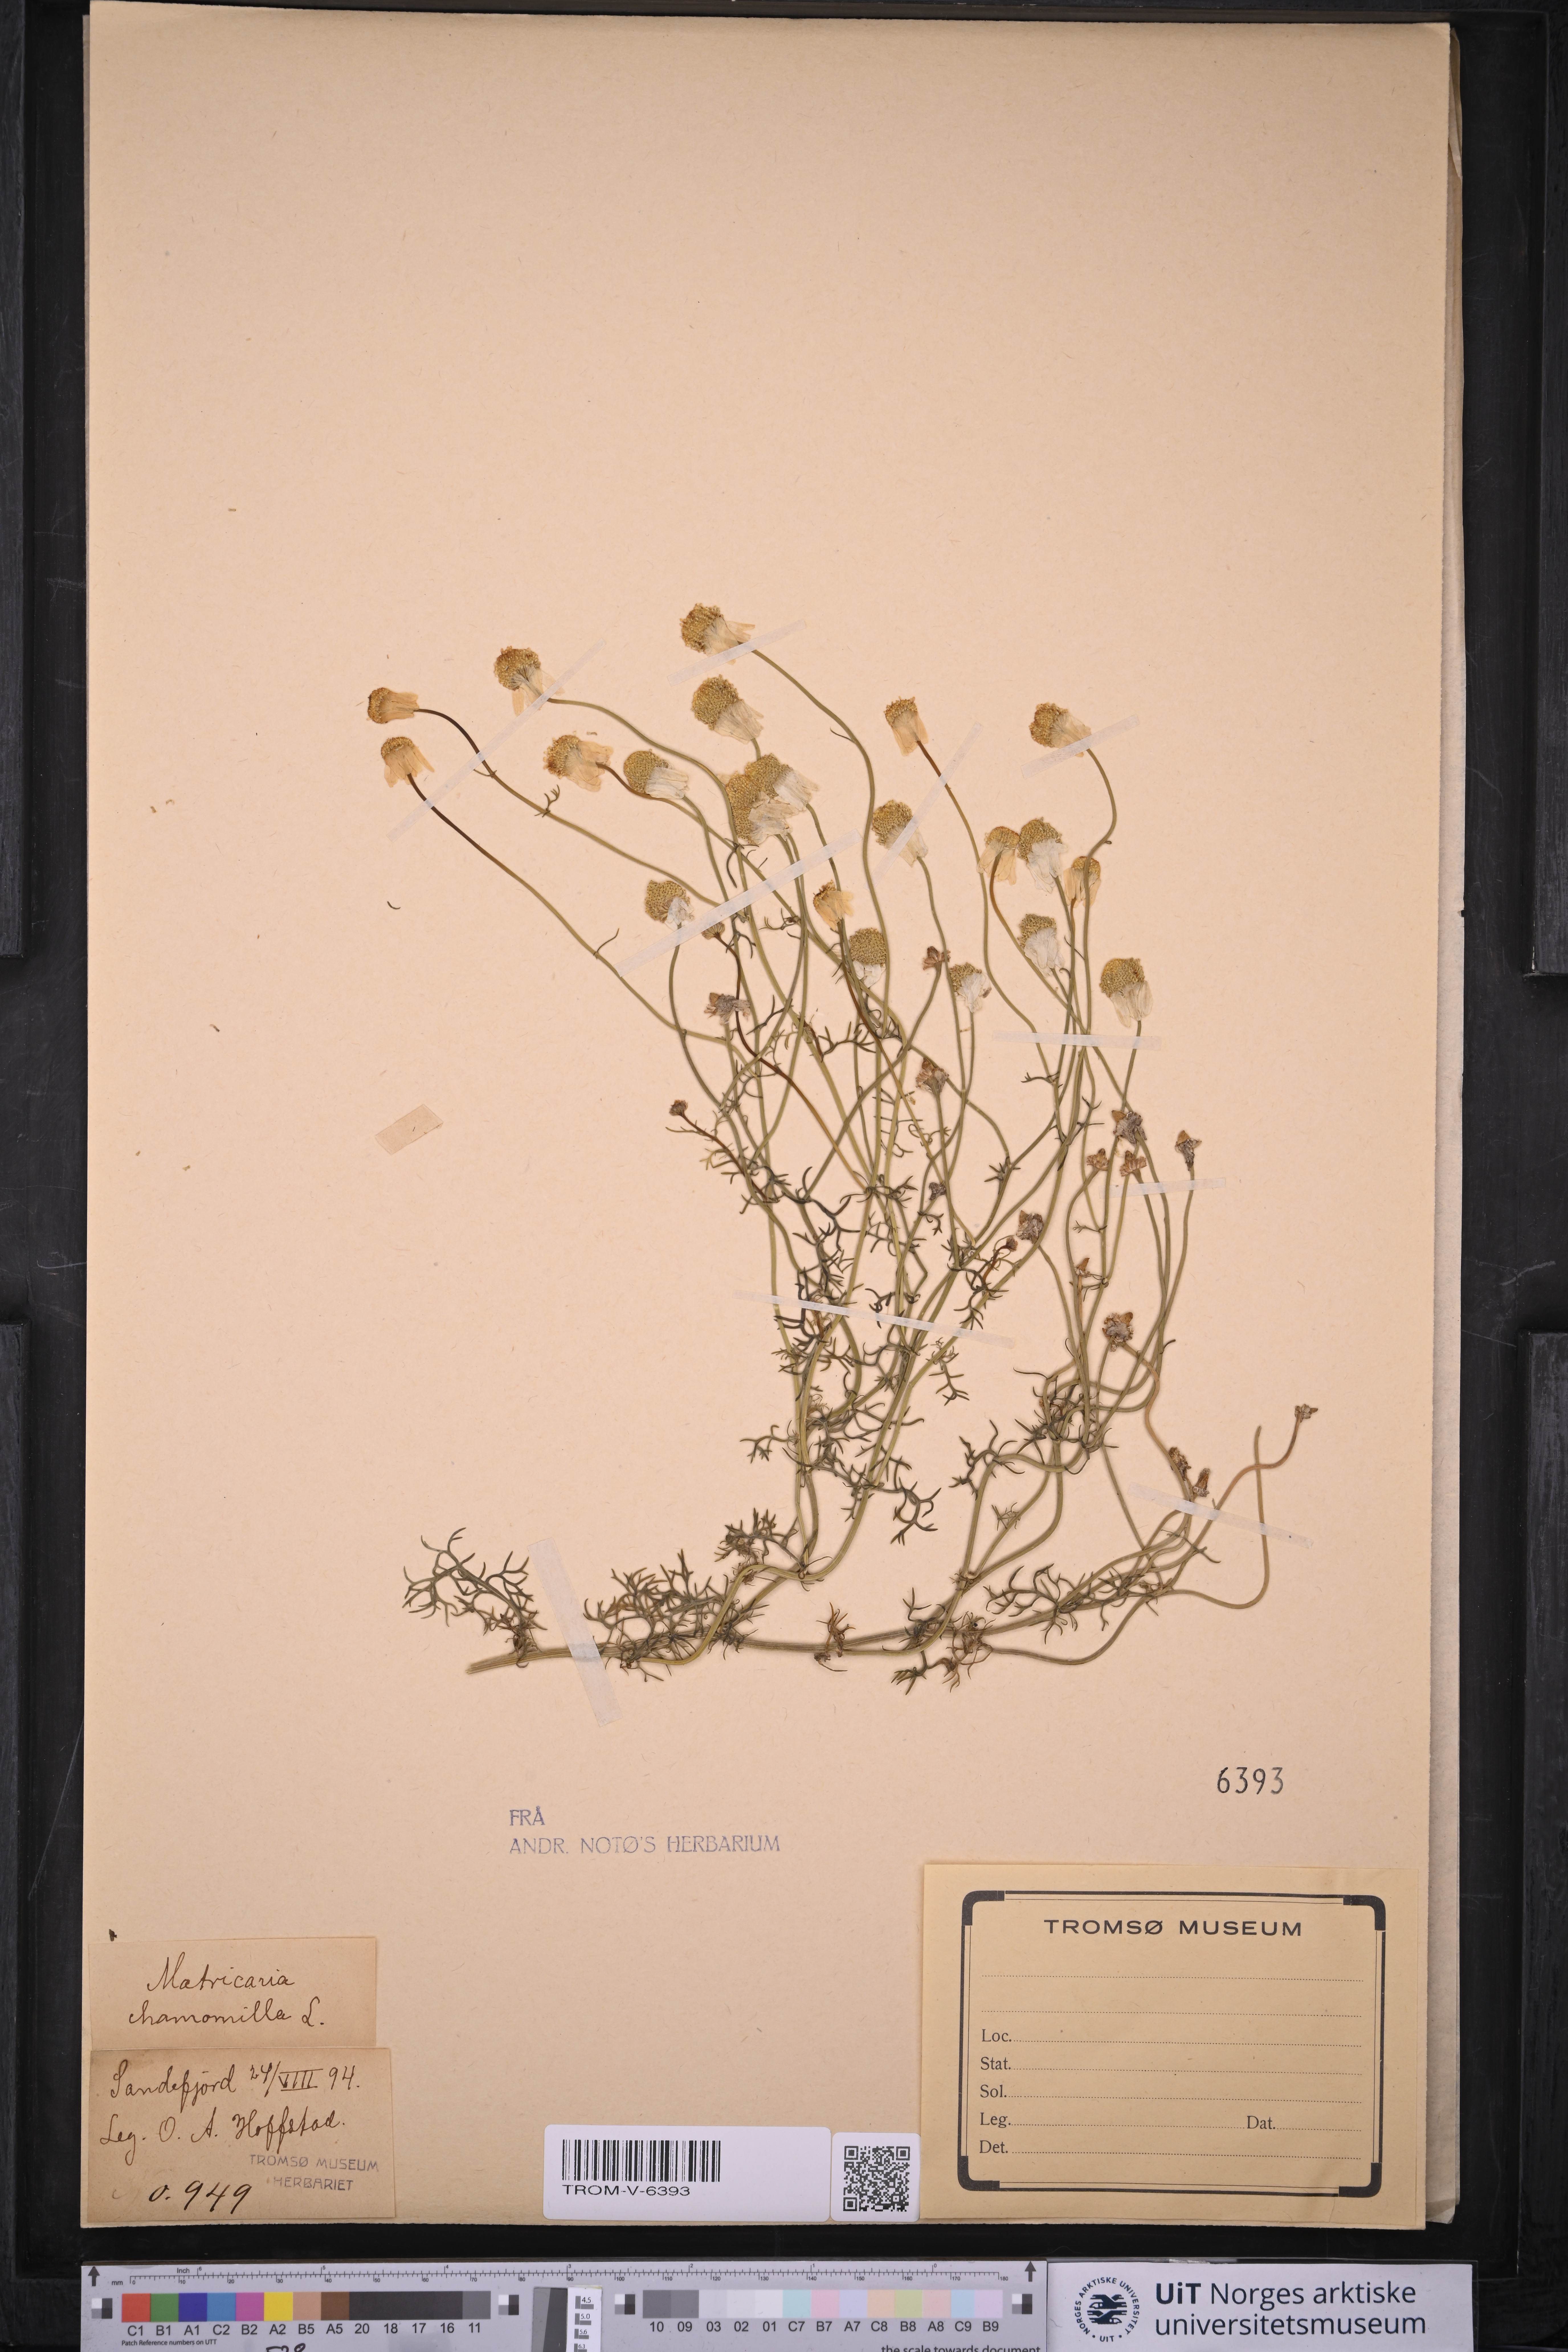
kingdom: Plantae
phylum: Tracheophyta
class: Magnoliopsida
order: Asterales
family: Asteraceae
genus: Matricaria
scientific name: Matricaria chamomilla
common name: Scented mayweed
